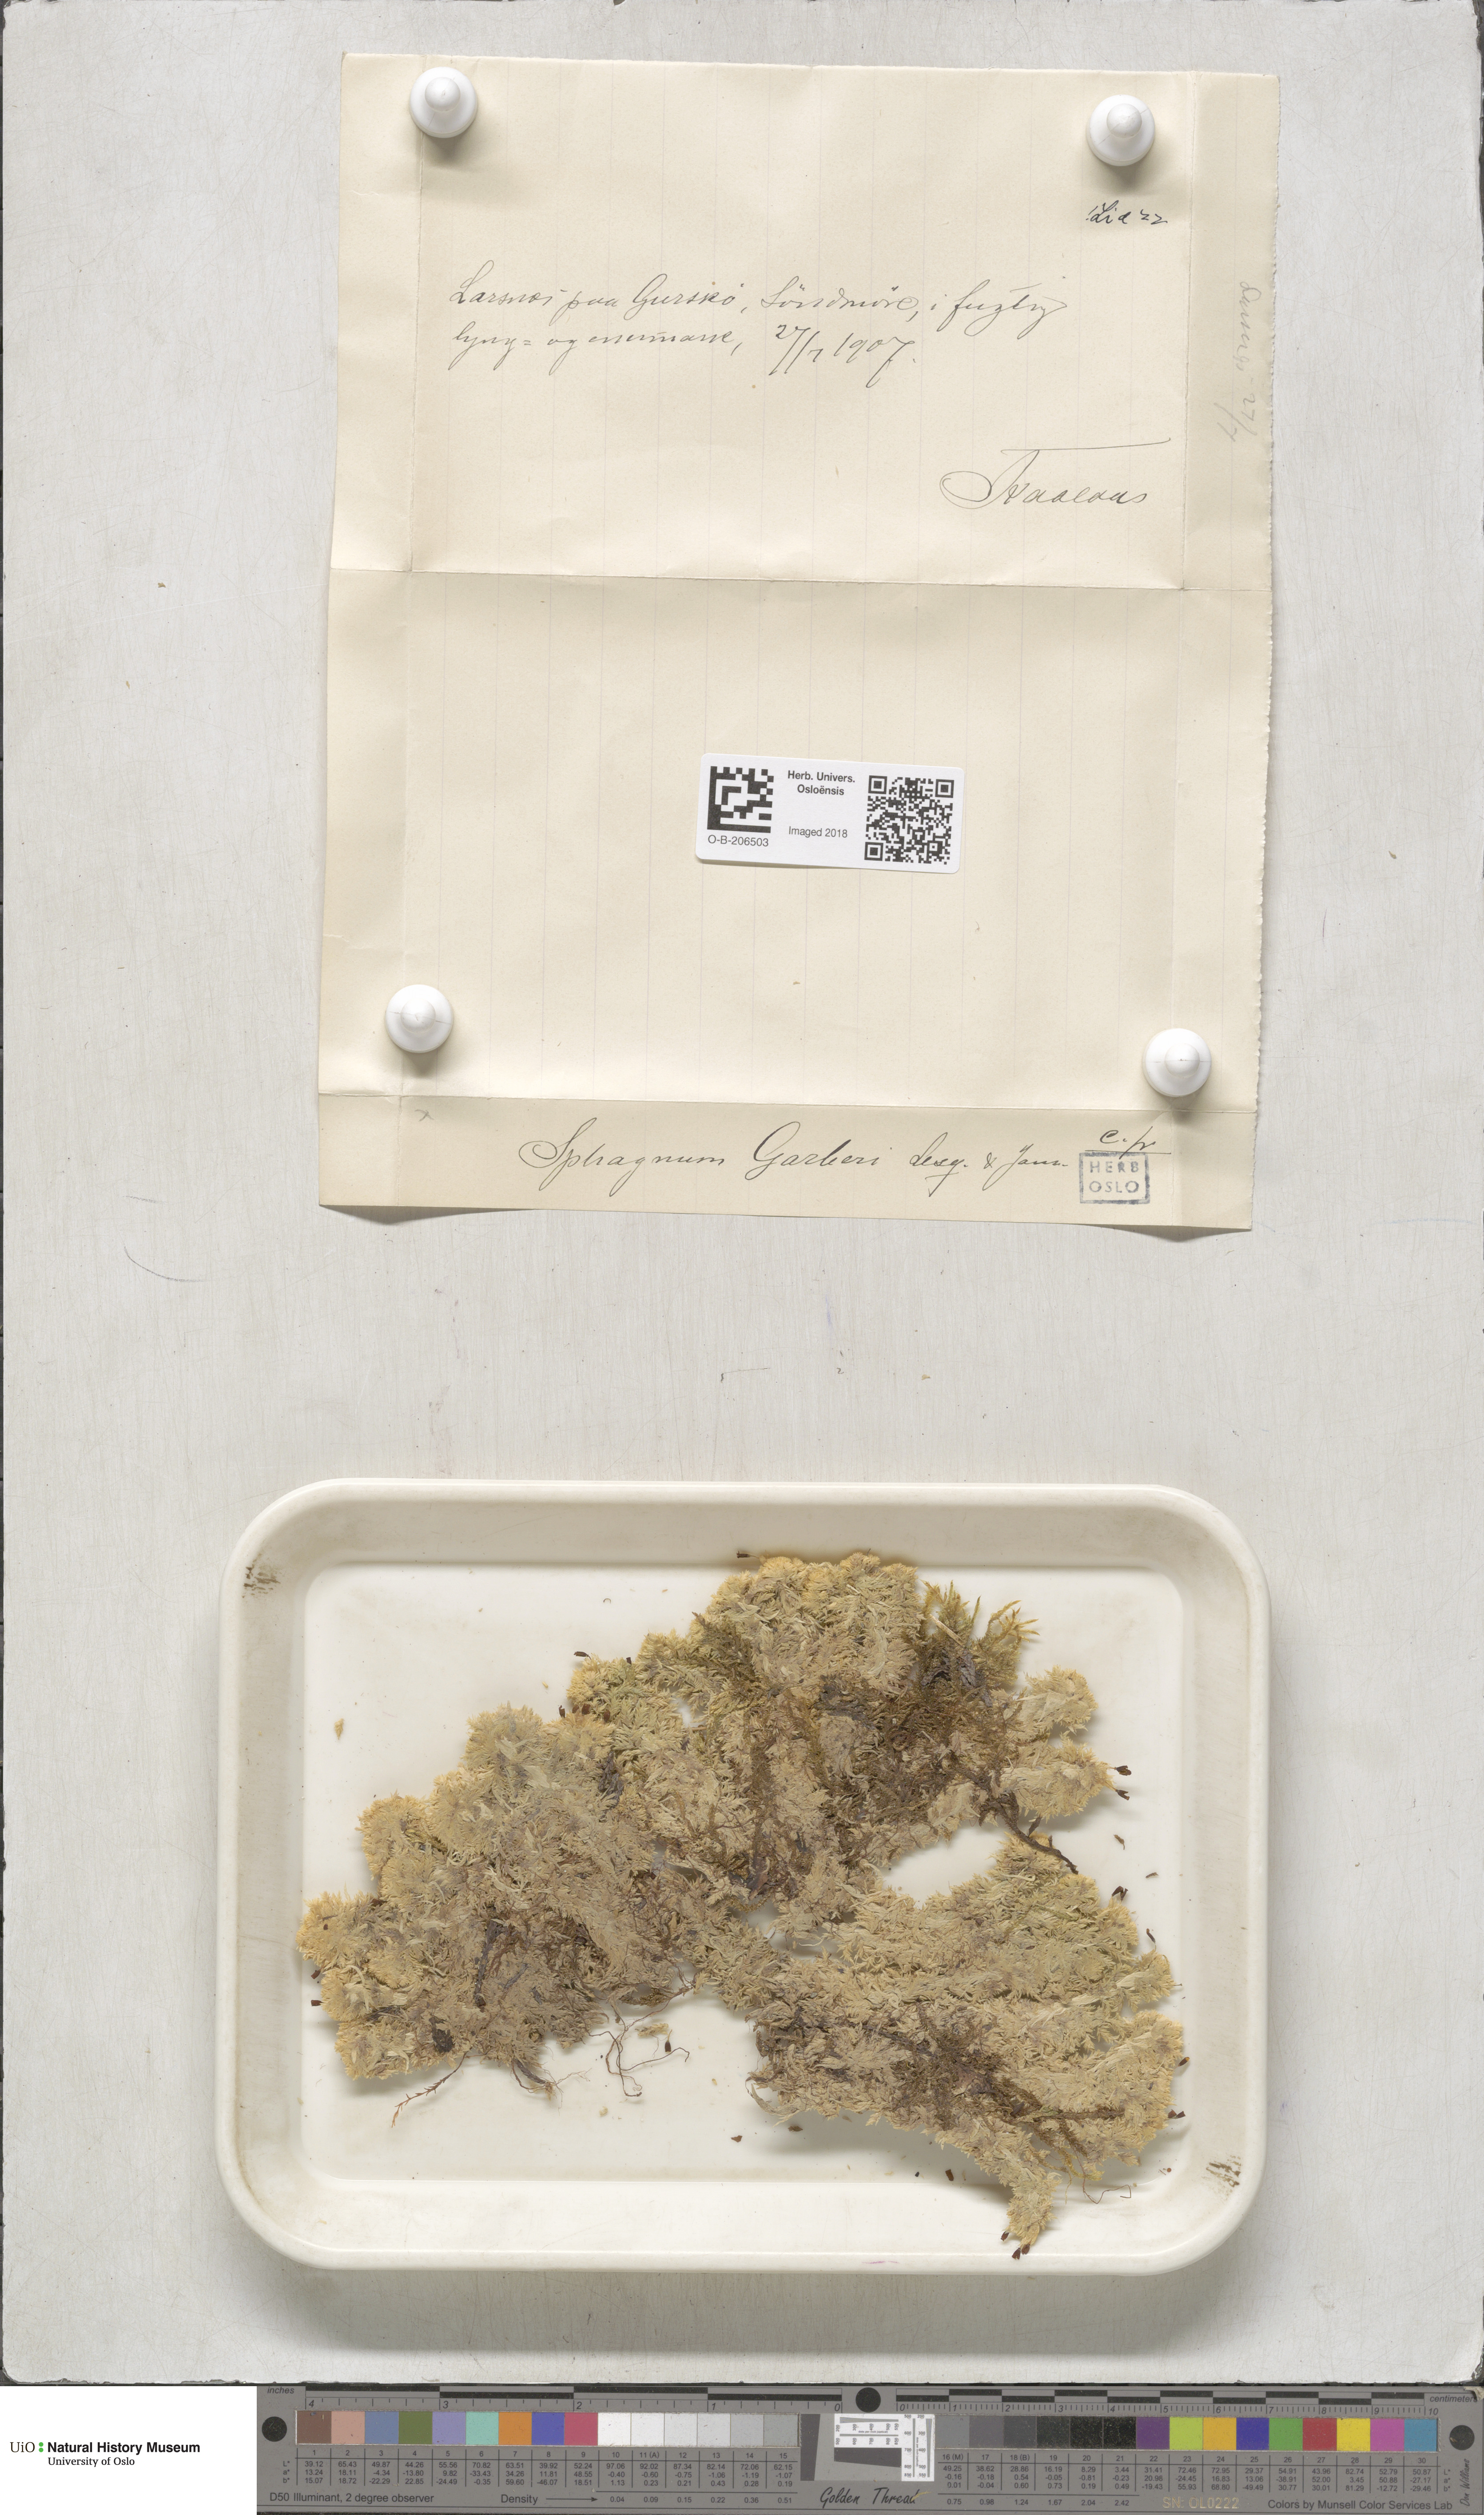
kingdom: Plantae
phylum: Bryophyta
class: Sphagnopsida
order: Sphagnales
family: Sphagnaceae
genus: Sphagnum
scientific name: Sphagnum strictum
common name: Pale bog-moss
